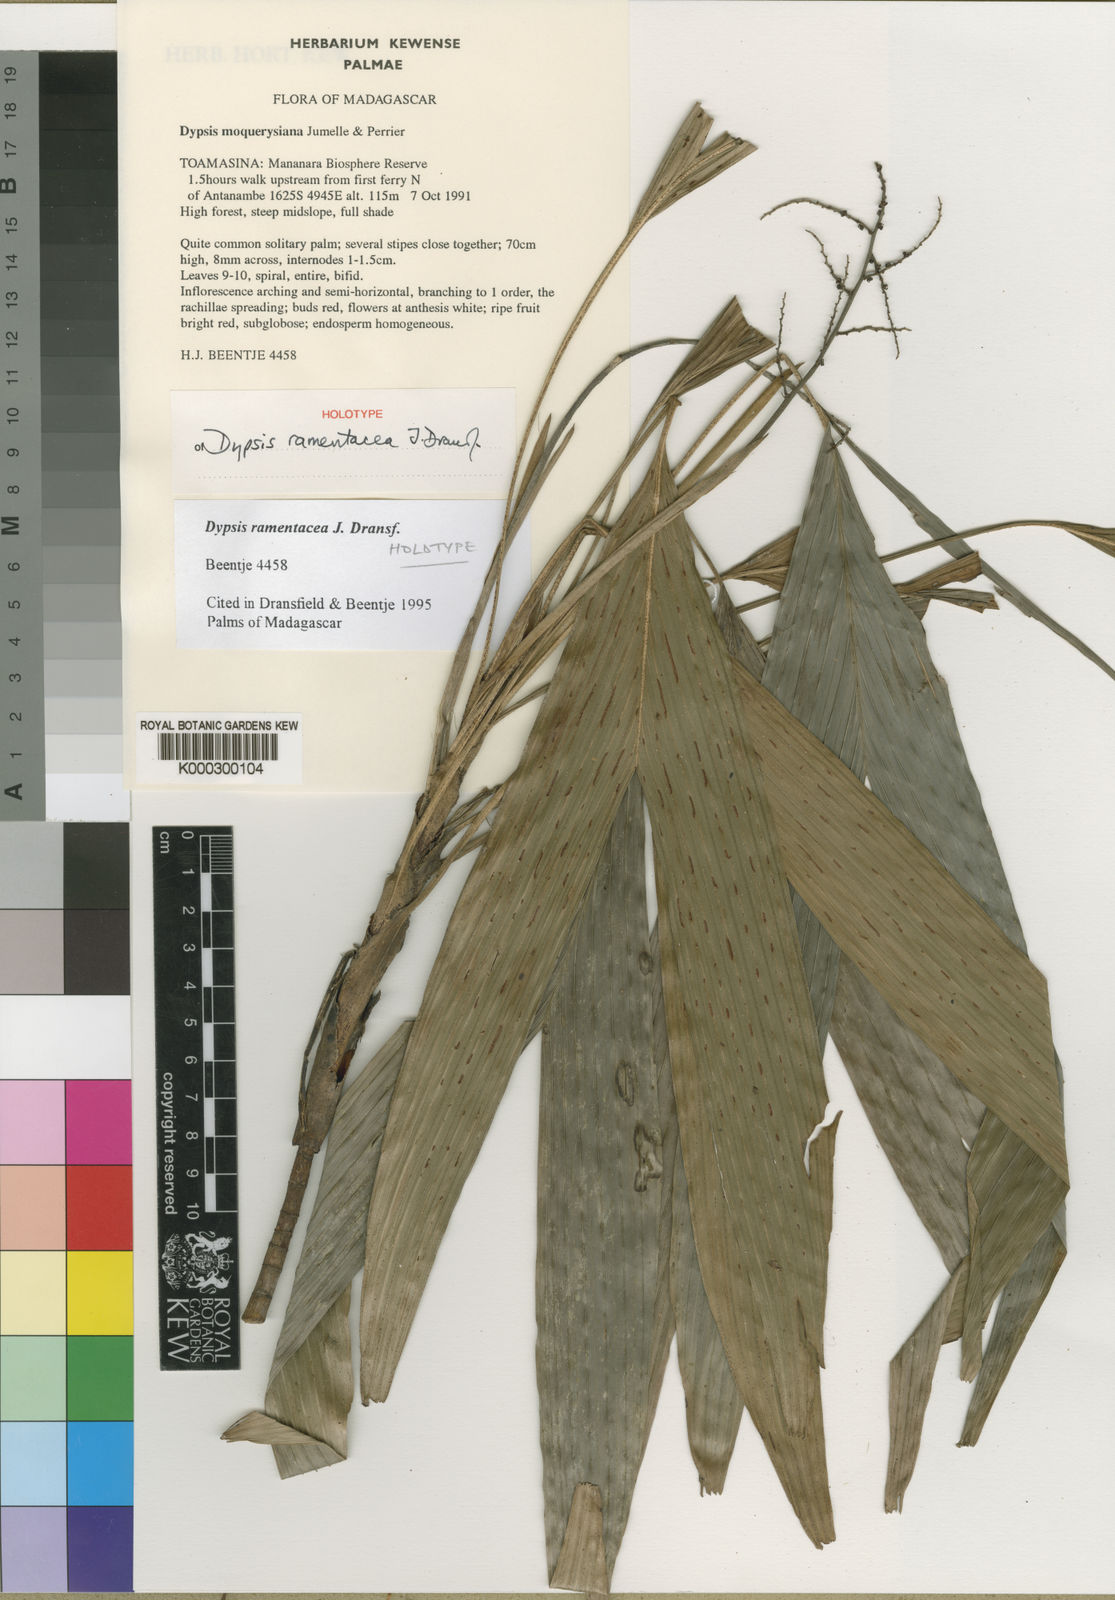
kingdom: Plantae
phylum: Tracheophyta
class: Liliopsida
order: Arecales
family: Arecaceae
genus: Dypsis
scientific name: Dypsis ramentacea
